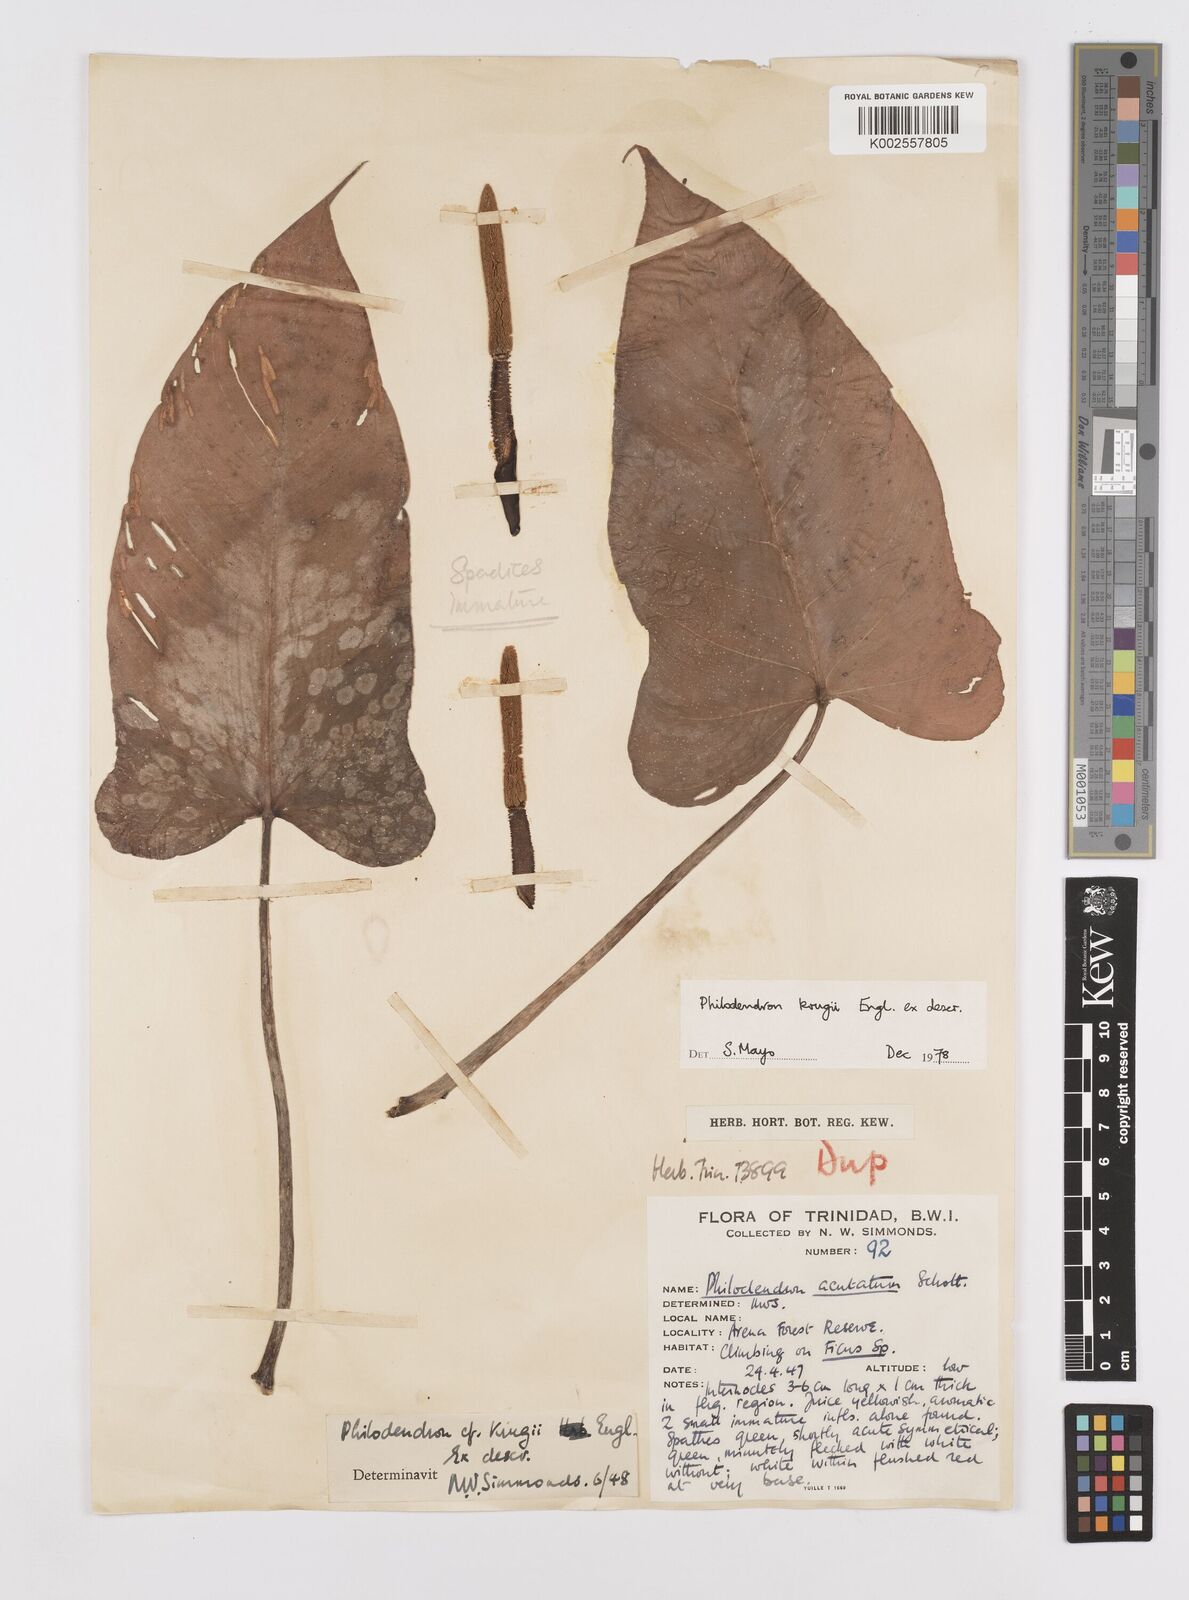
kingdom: Plantae
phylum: Tracheophyta
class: Liliopsida
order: Alismatales
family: Araceae
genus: Philodendron
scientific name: Philodendron krugii
